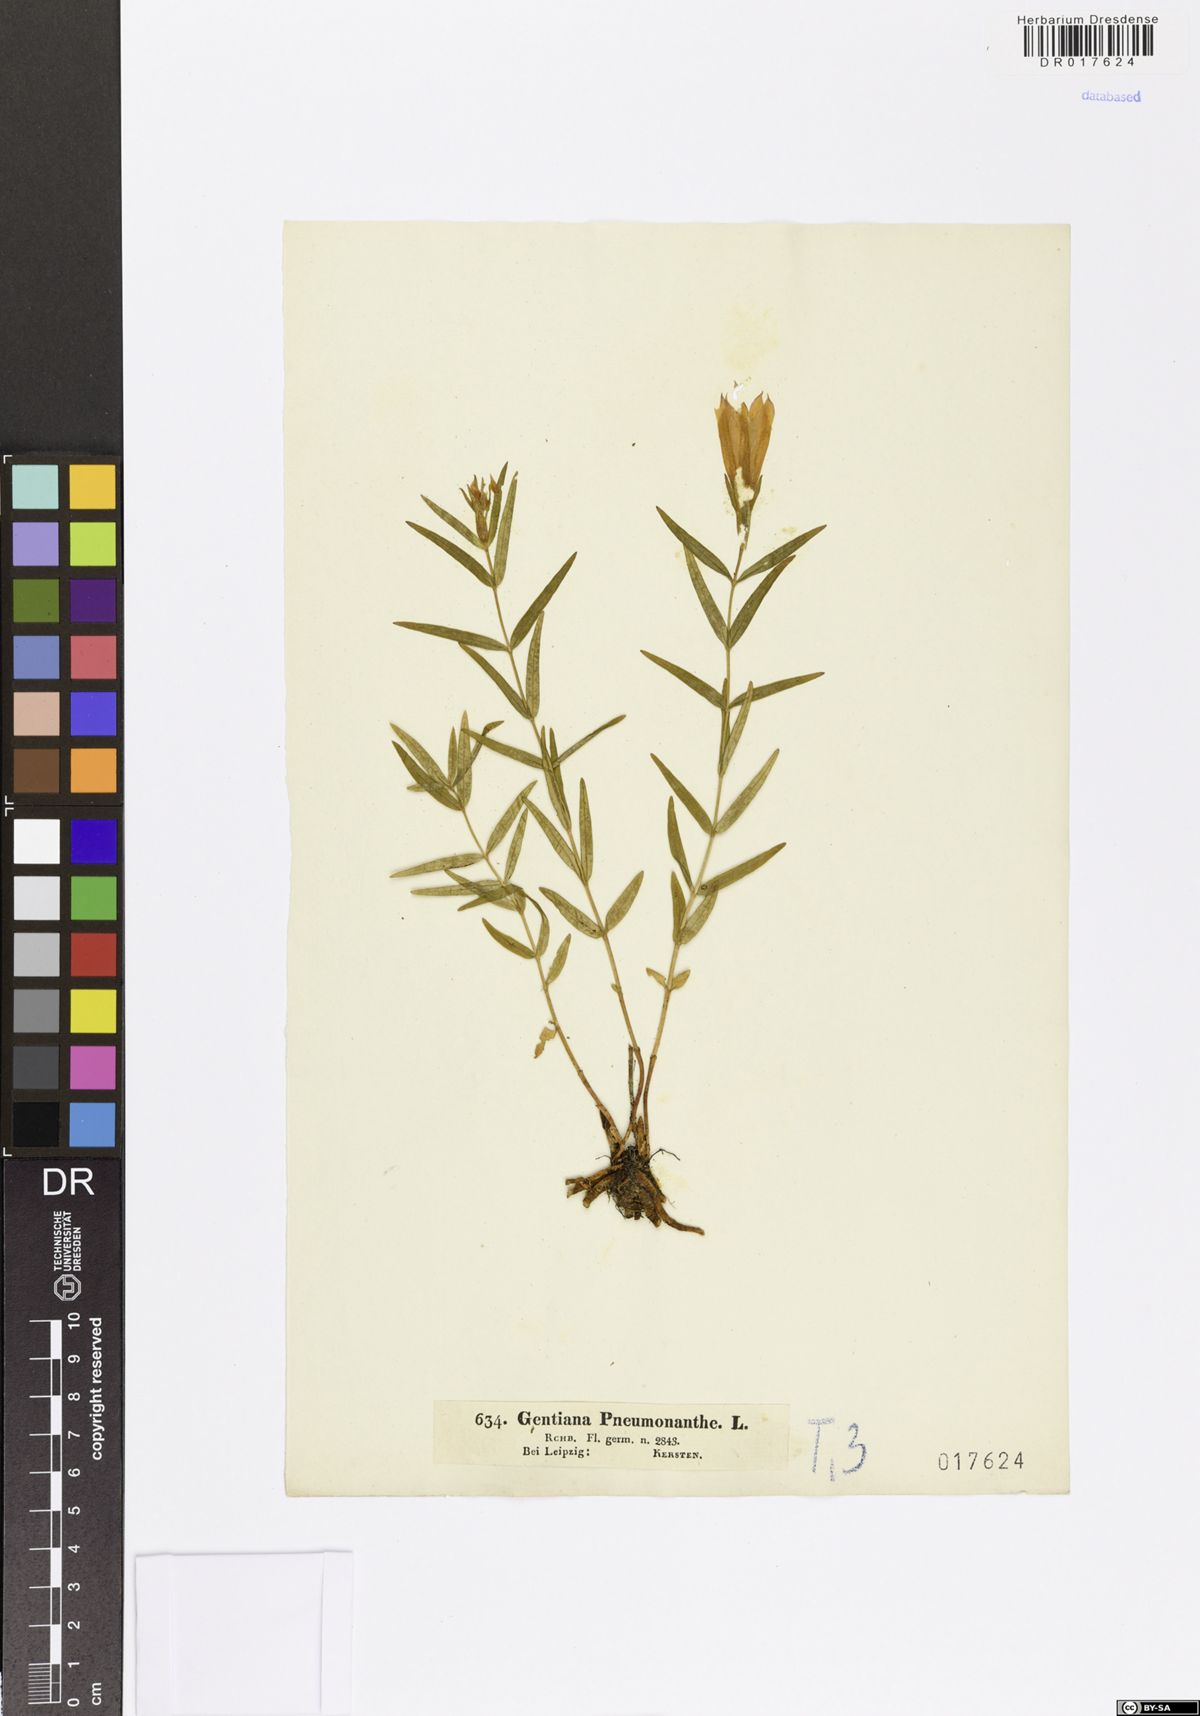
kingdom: Plantae
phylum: Tracheophyta
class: Magnoliopsida
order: Gentianales
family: Gentianaceae
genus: Gentiana
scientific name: Gentiana pneumonanthe
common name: Marsh gentian
